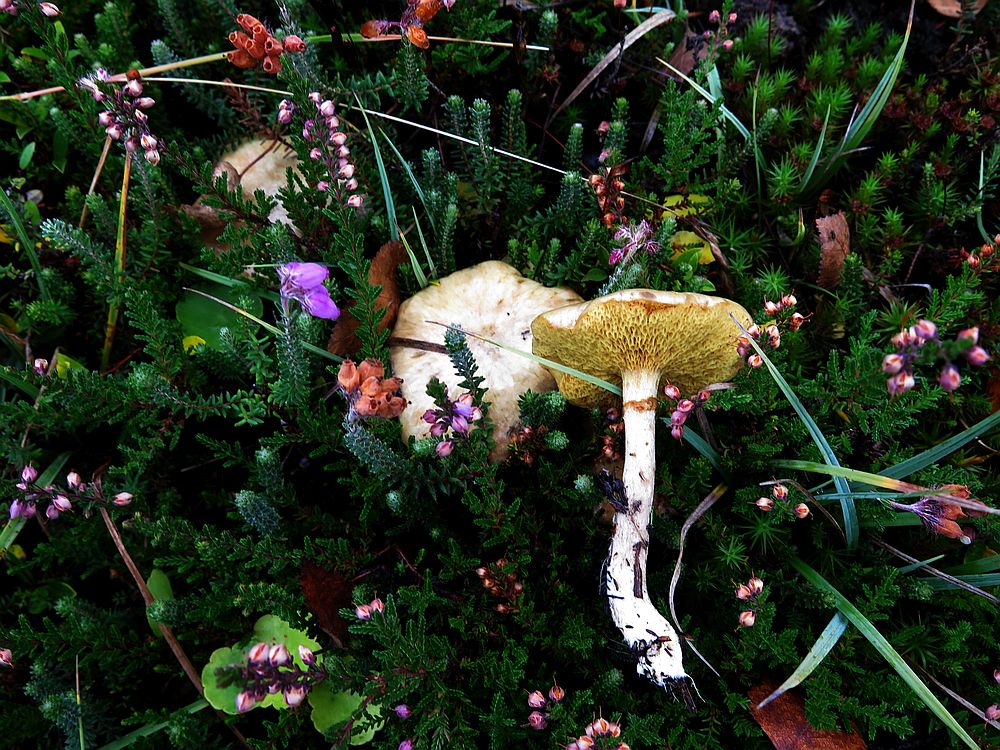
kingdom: Fungi
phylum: Basidiomycota
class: Agaricomycetes
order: Boletales
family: Suillaceae
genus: Suillus
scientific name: Suillus flavidus
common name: mose-slimrørhat
